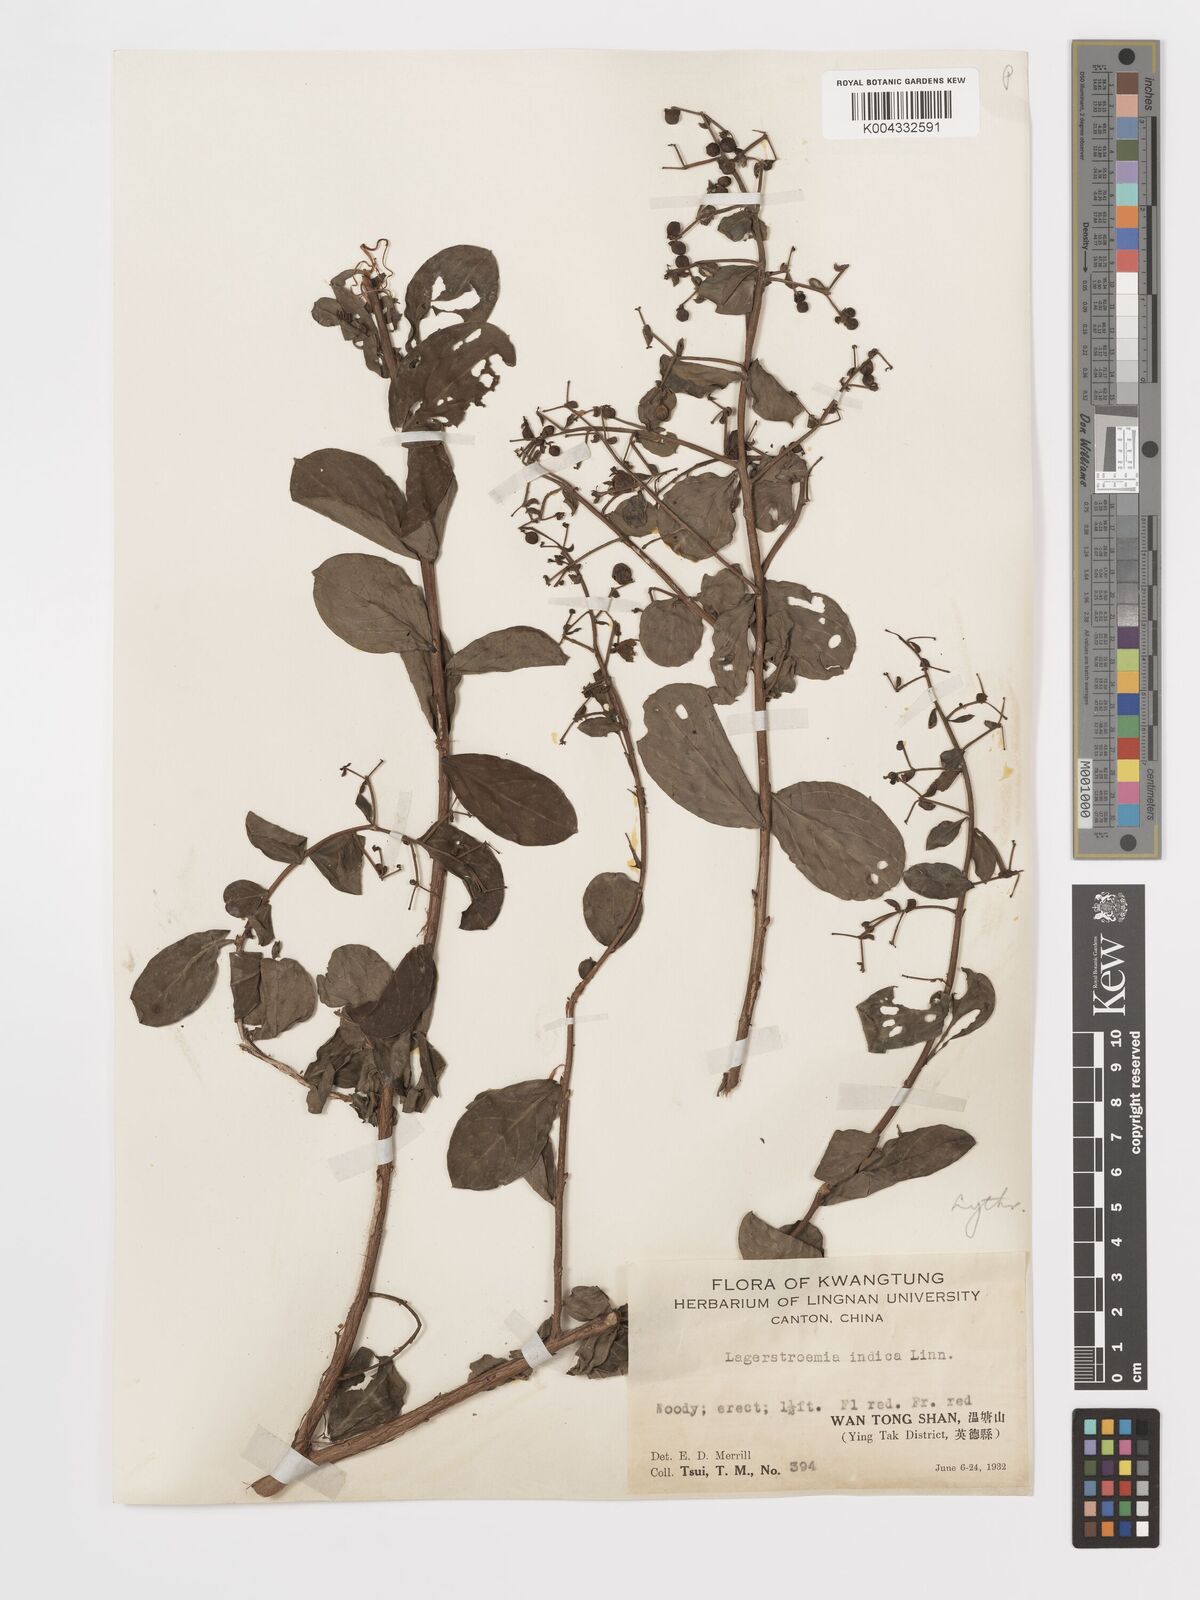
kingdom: Plantae
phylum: Tracheophyta
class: Magnoliopsida
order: Myrtales
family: Lythraceae
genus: Lagerstroemia
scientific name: Lagerstroemia indica
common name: Crape-myrtle
